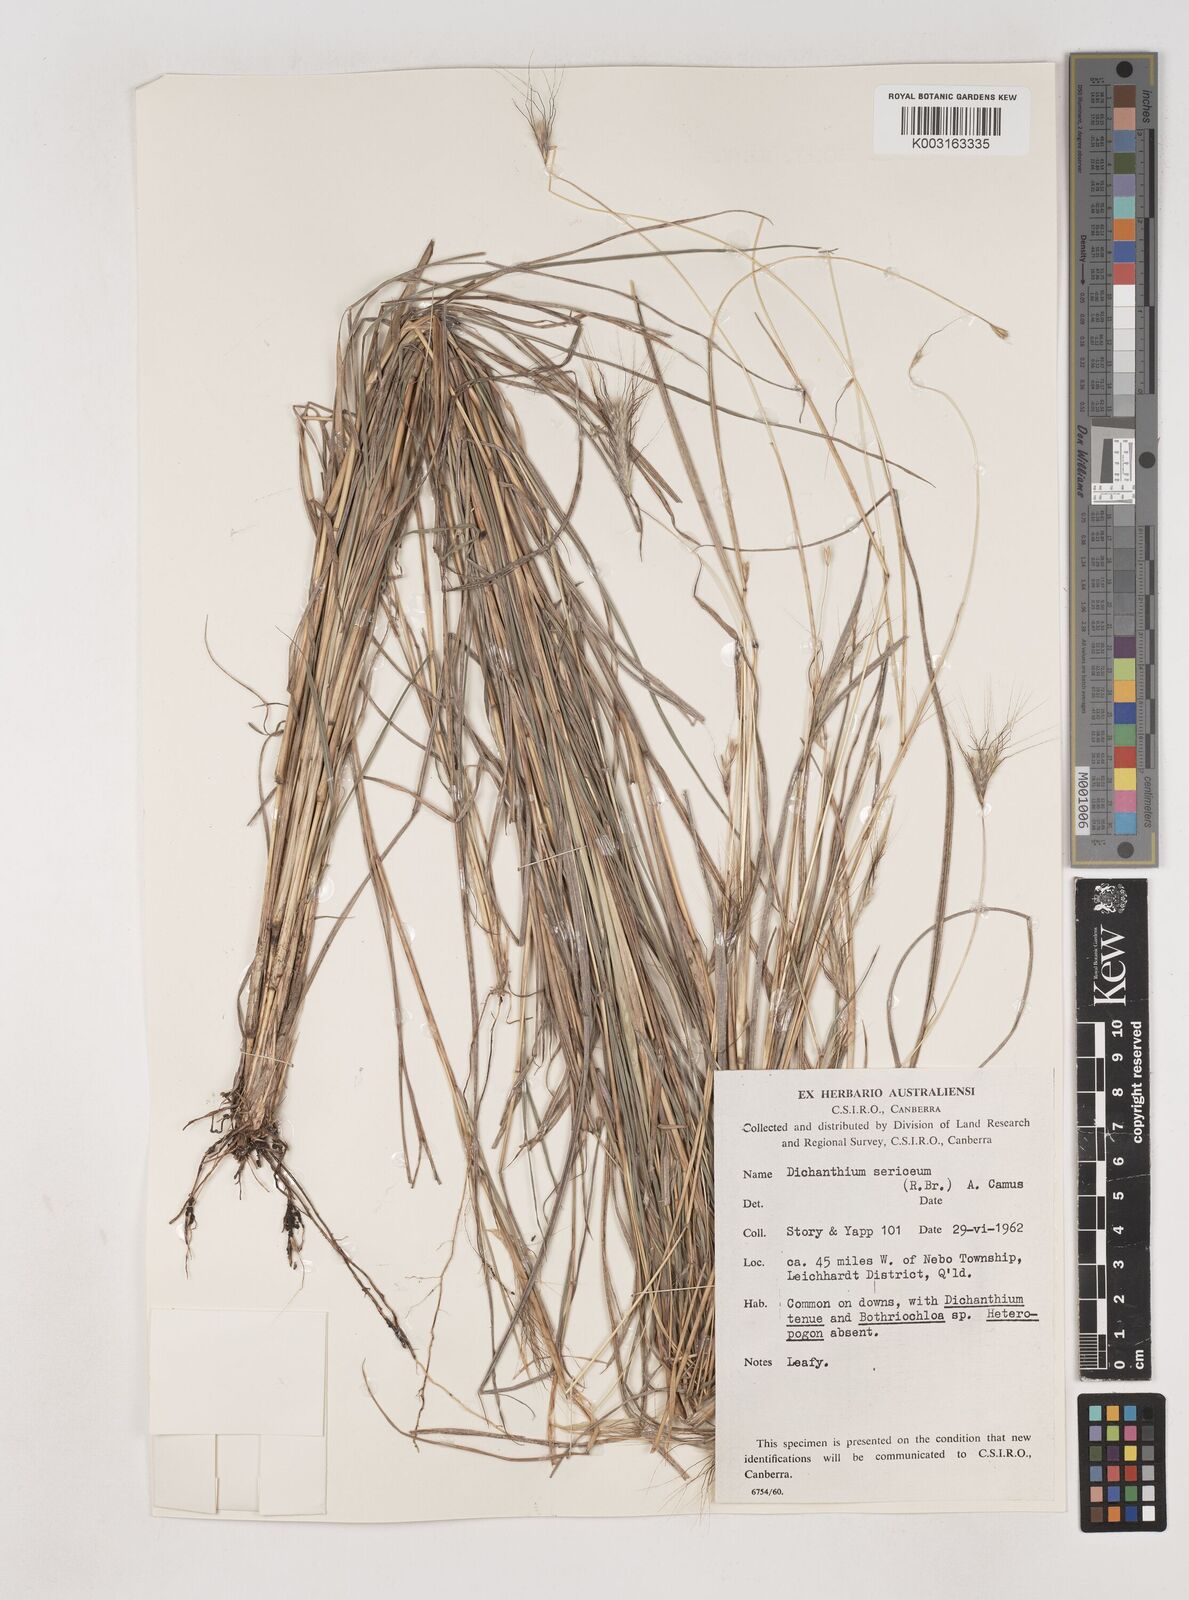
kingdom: Plantae
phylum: Tracheophyta
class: Liliopsida
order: Poales
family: Poaceae
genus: Dichanthium
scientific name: Dichanthium sericeum
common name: Silky bluestem
